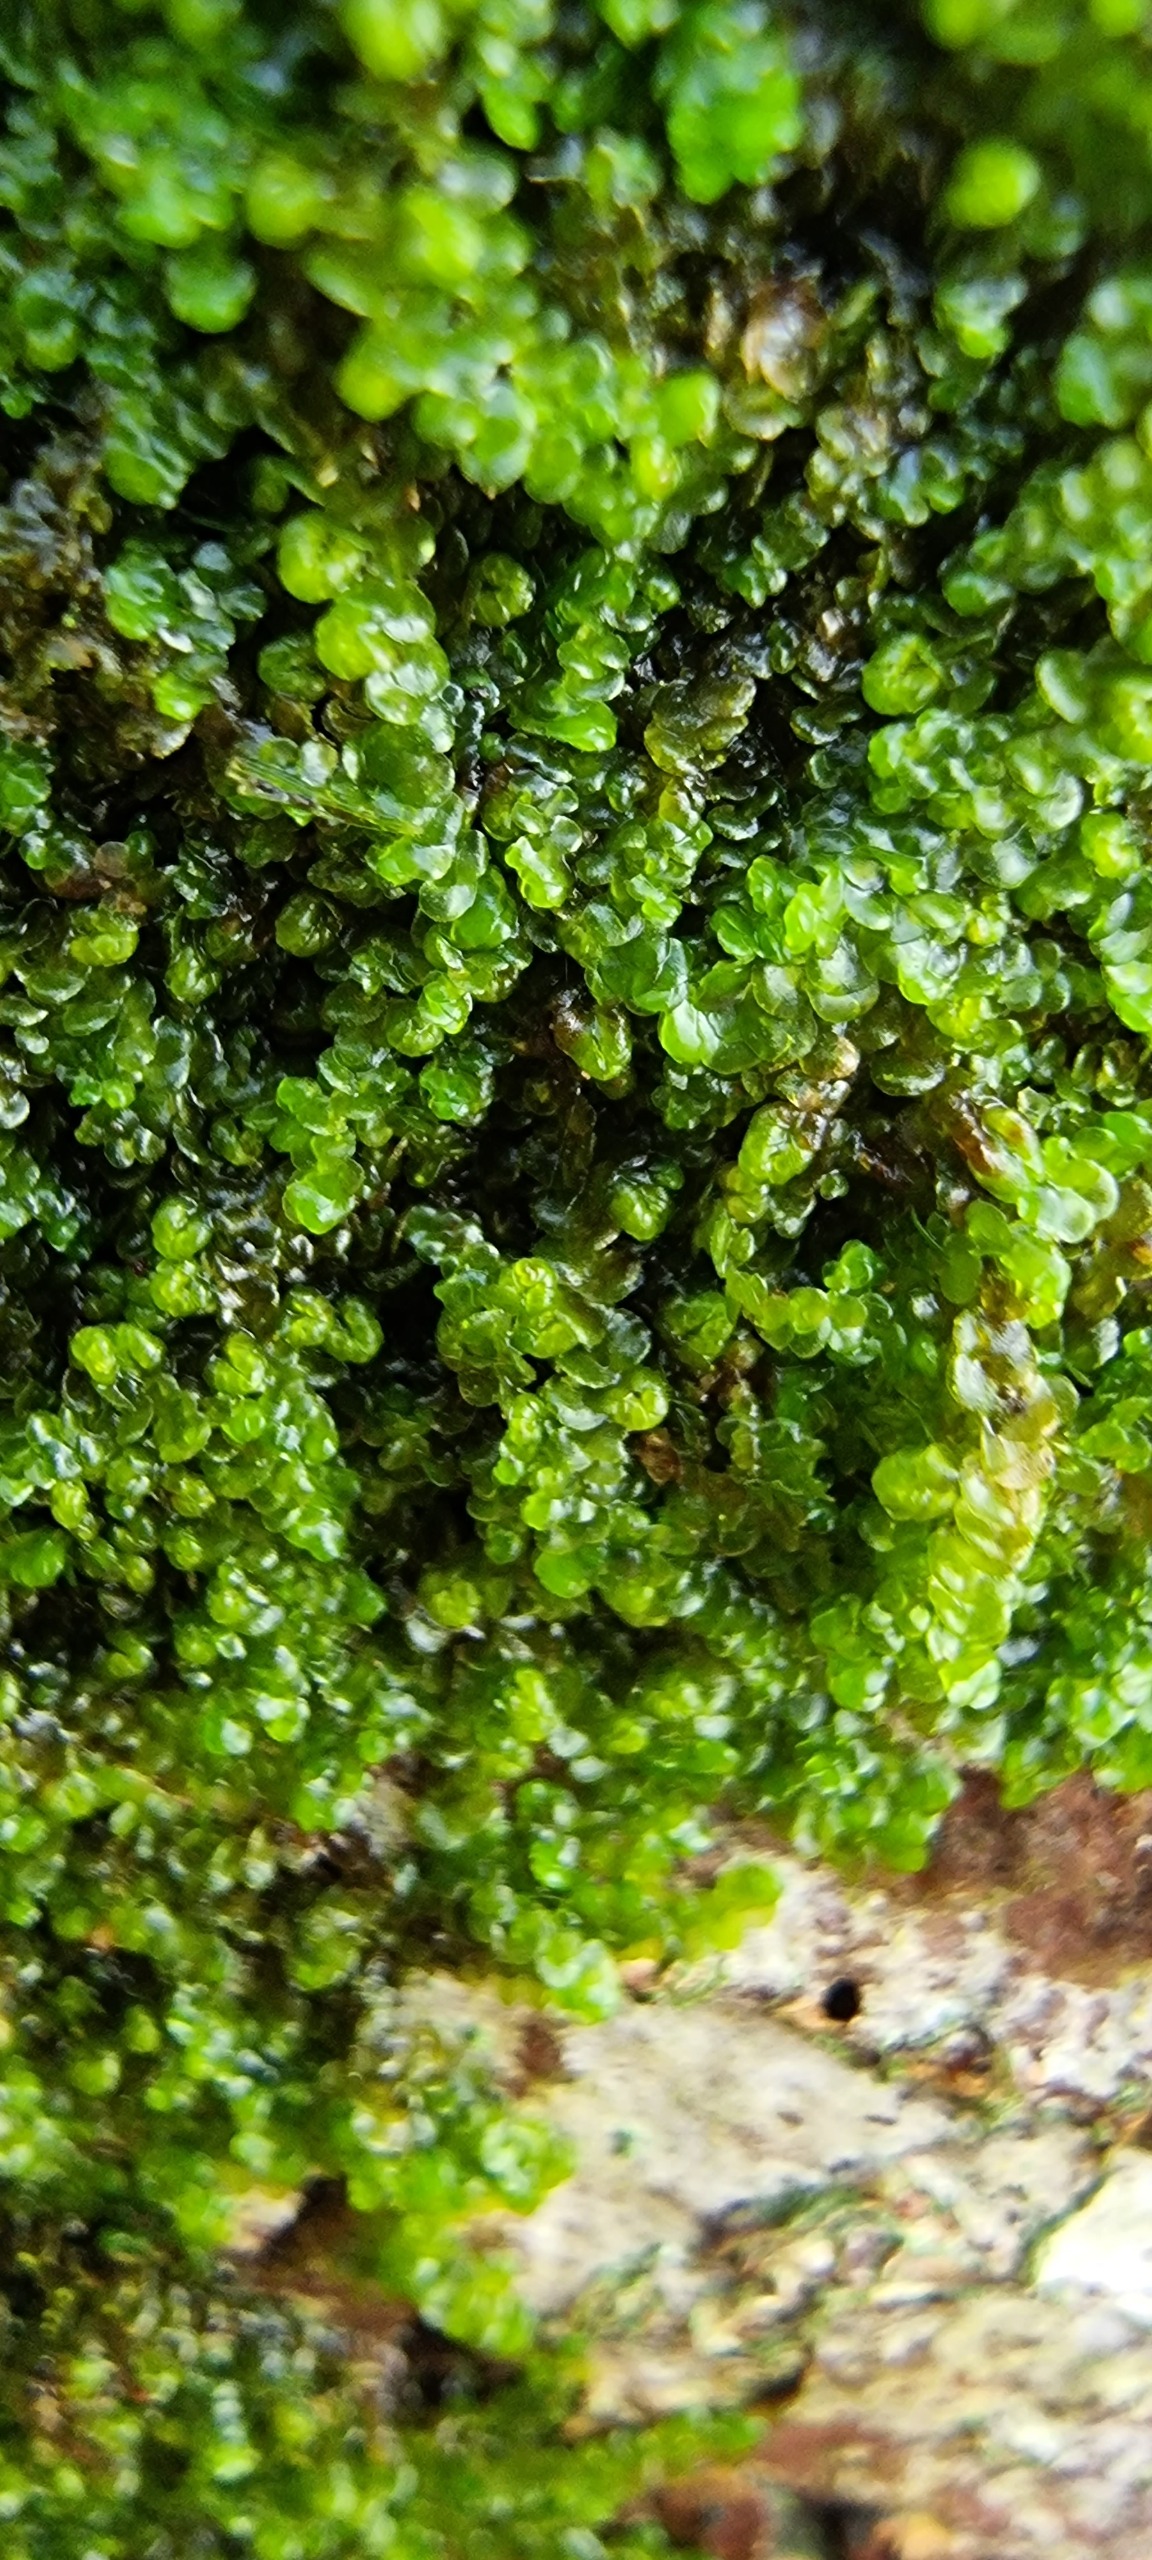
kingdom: Plantae
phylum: Marchantiophyta
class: Jungermanniopsida
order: Porellales
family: Frullaniaceae
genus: Frullania
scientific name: Frullania dilatata
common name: Mat bronzemos
